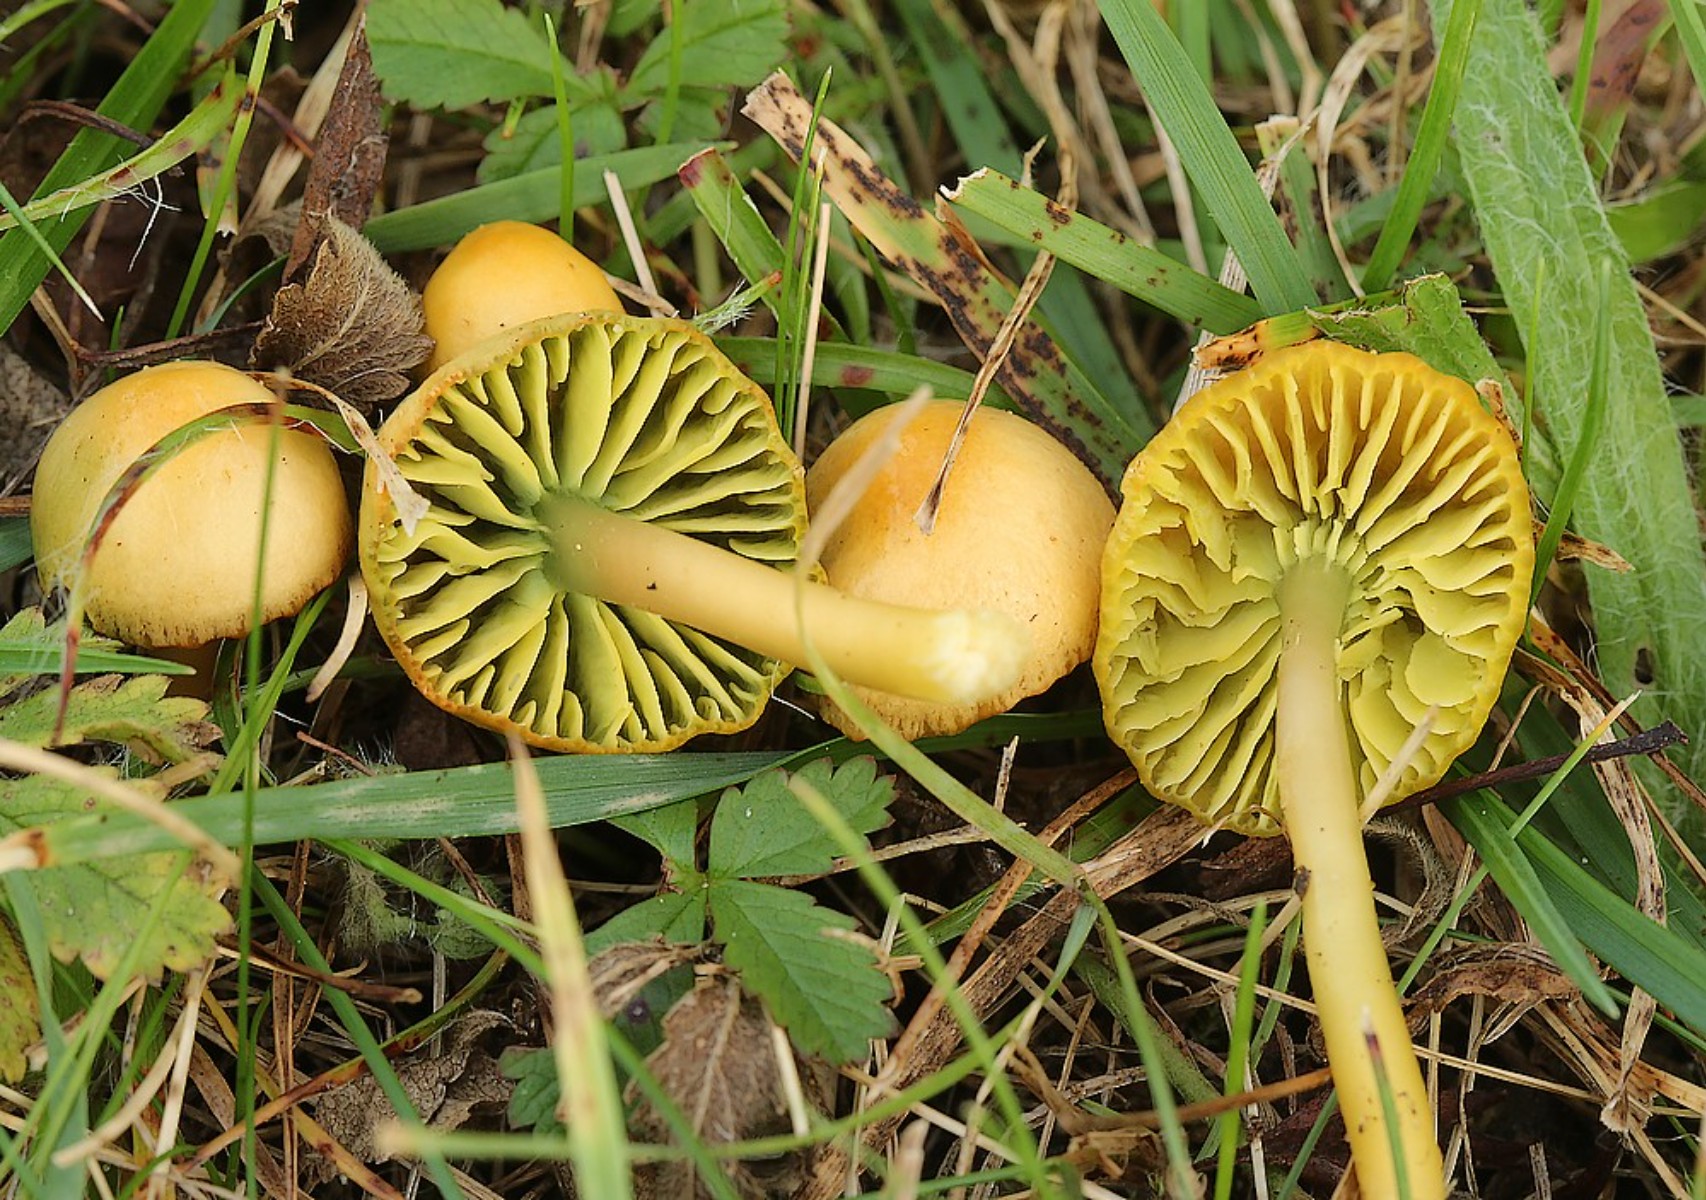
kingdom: Fungi
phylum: Basidiomycota
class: Agaricomycetes
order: Agaricales
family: Hygrophoraceae
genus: Gliophorus
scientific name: Gliophorus psittacinus
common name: papegøje-vokshat
